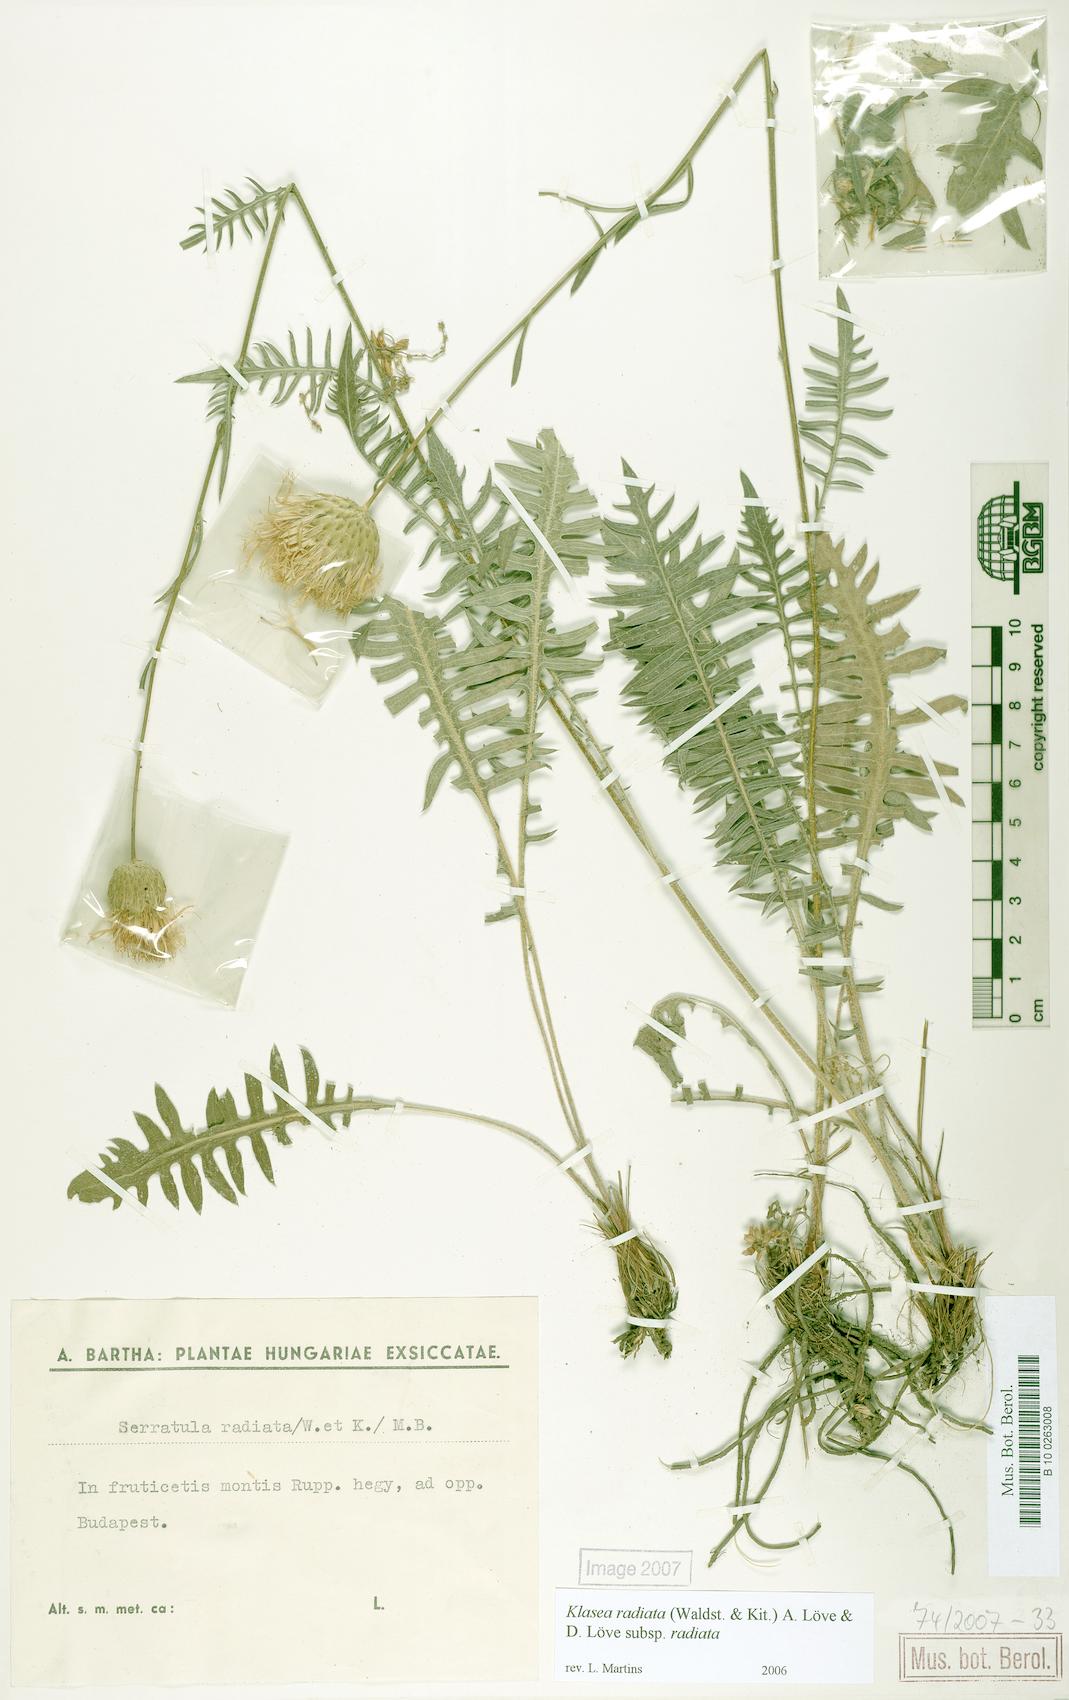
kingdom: Plantae
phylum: Tracheophyta
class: Magnoliopsida
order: Asterales
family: Asteraceae
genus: Klasea
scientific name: Klasea radiata
